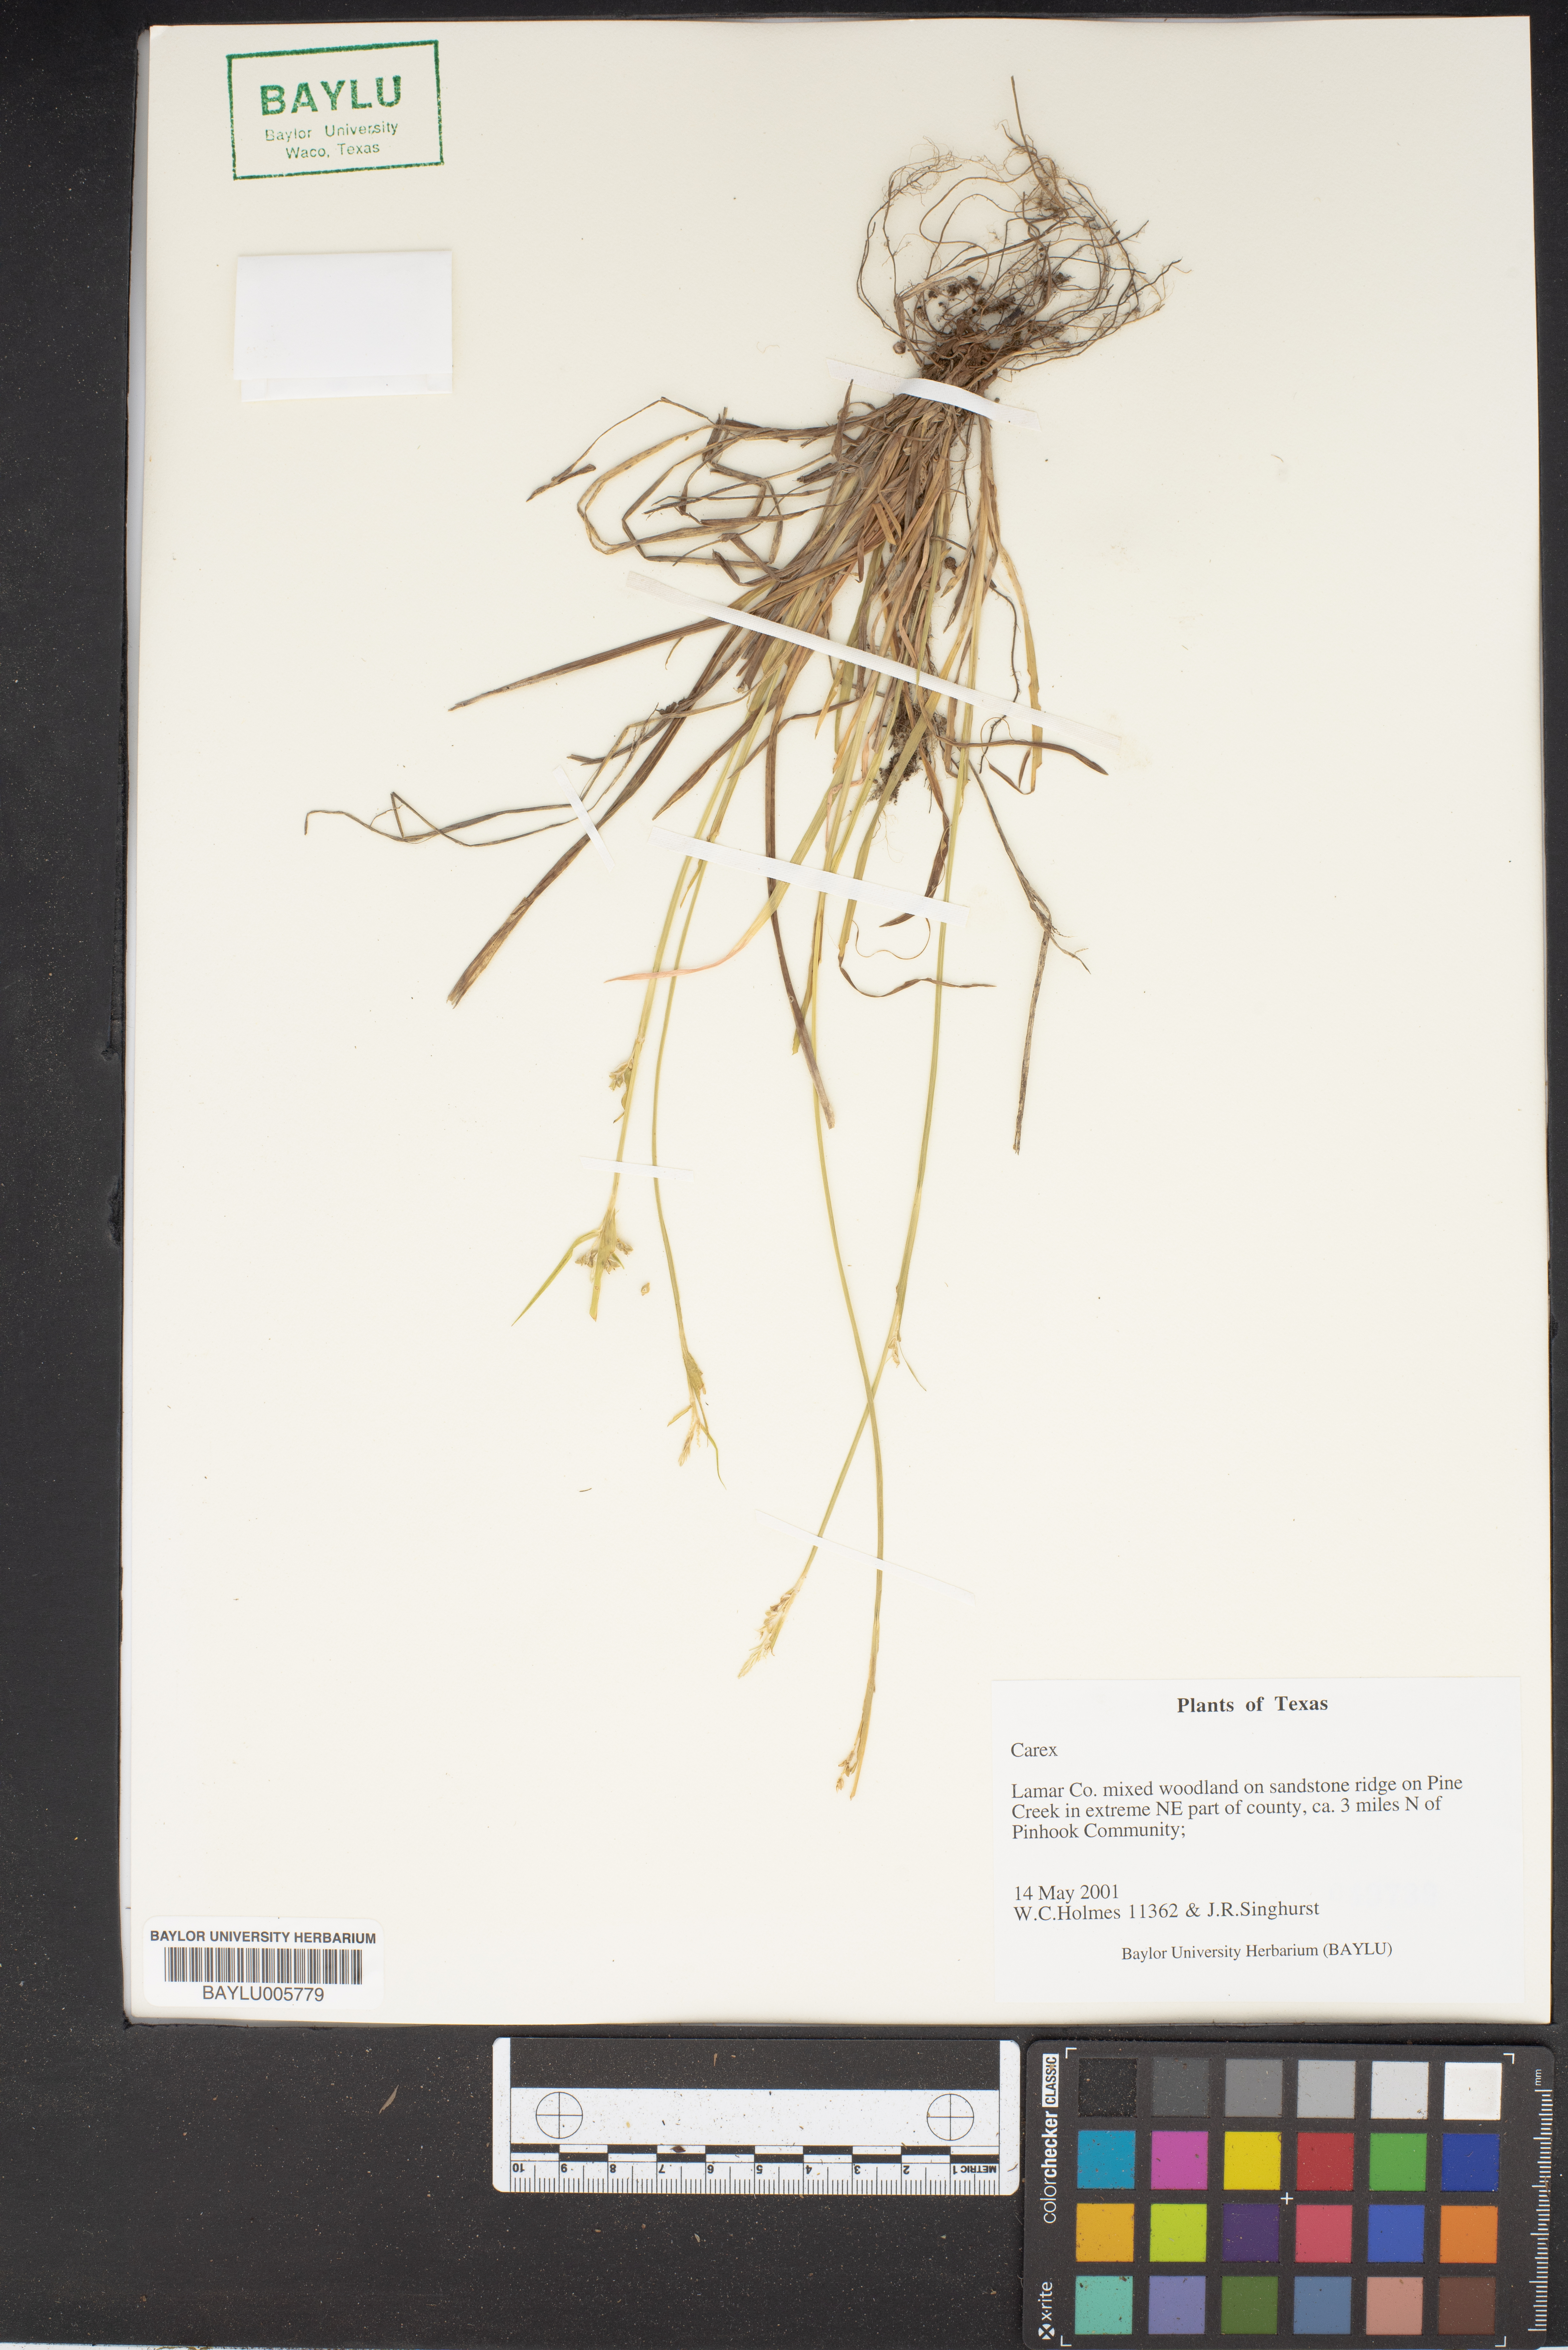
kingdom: Plantae
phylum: Tracheophyta
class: Liliopsida
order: Poales
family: Cyperaceae
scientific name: Cyperaceae
